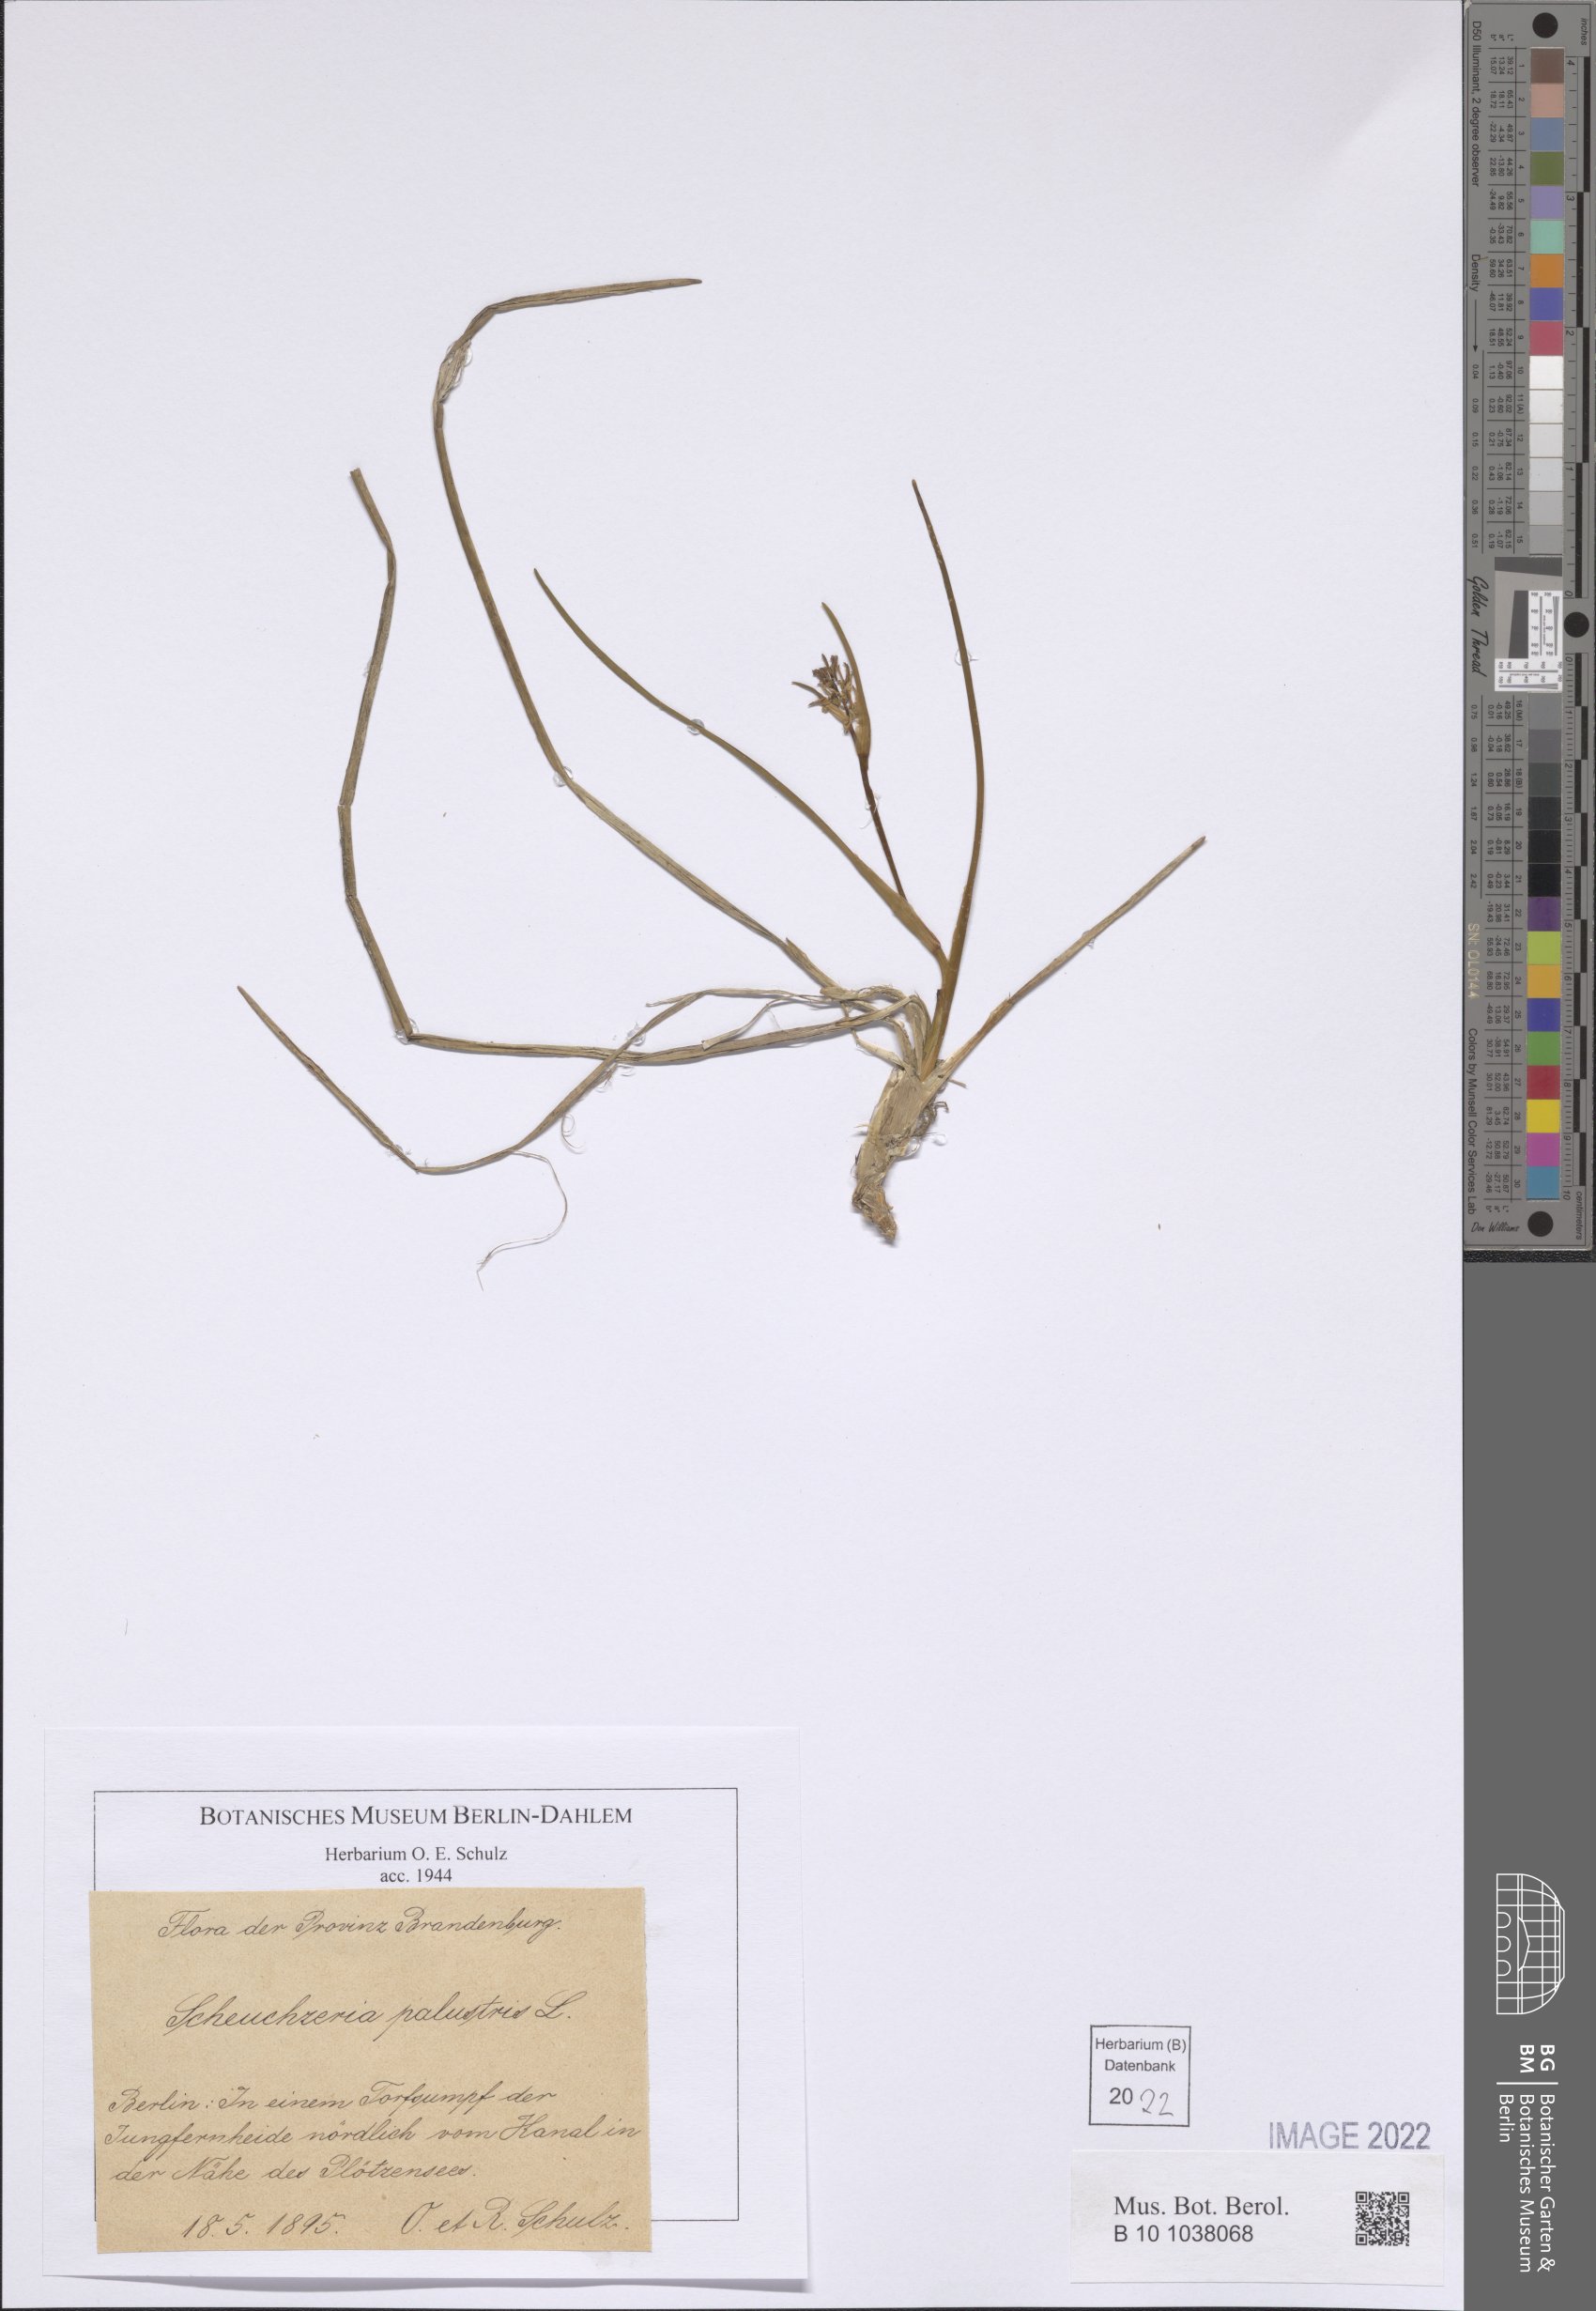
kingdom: Plantae
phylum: Tracheophyta
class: Liliopsida
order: Alismatales
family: Scheuchzeriaceae
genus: Scheuchzeria
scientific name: Scheuchzeria palustris
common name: Rannoch-rush
